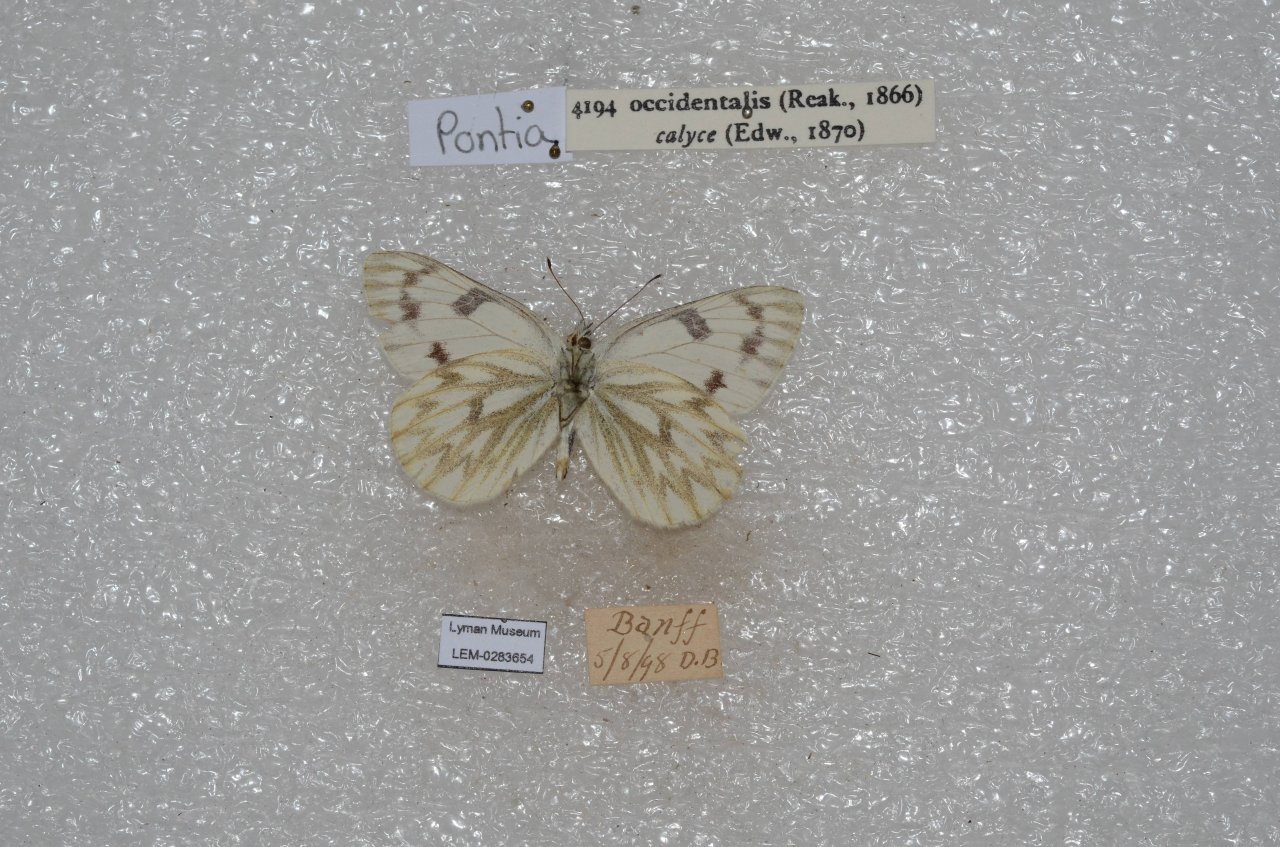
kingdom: Animalia
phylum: Arthropoda
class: Insecta
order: Lepidoptera
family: Pieridae
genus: Pontia
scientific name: Pontia occidentalis
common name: Western White
